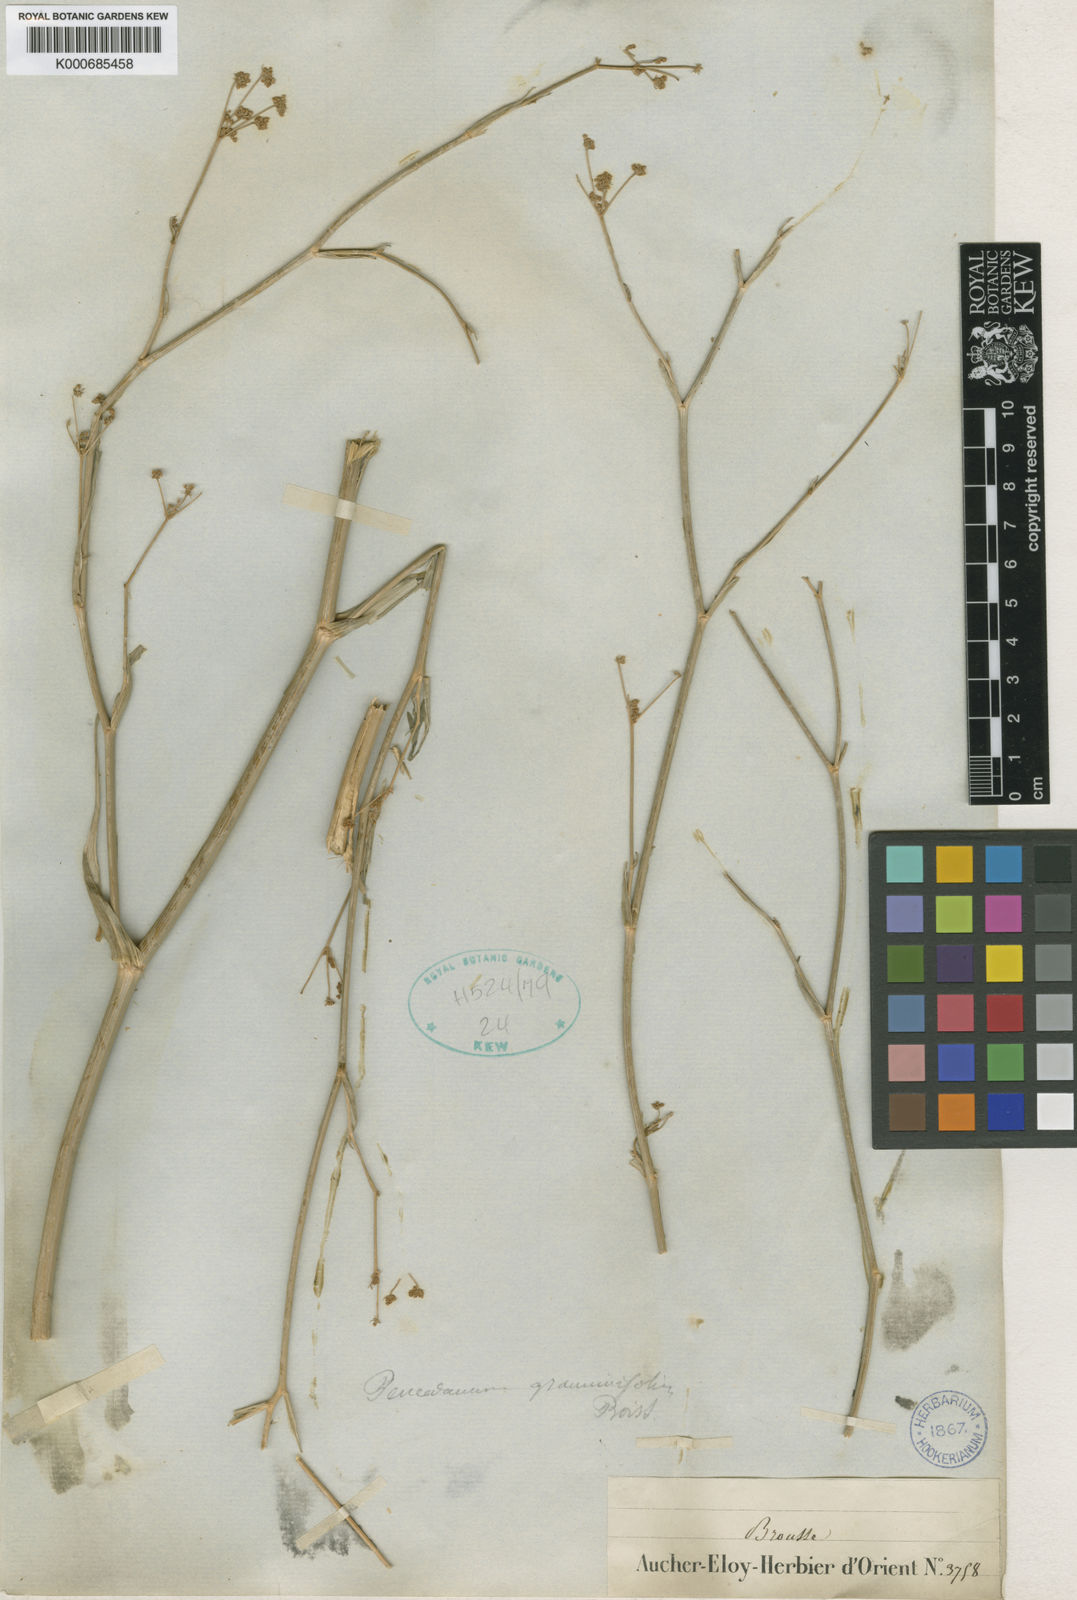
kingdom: Plantae
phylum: Tracheophyta
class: Magnoliopsida
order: Apiales
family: Apiaceae
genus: Dichoropetalum
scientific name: Dichoropetalum graminifolium
